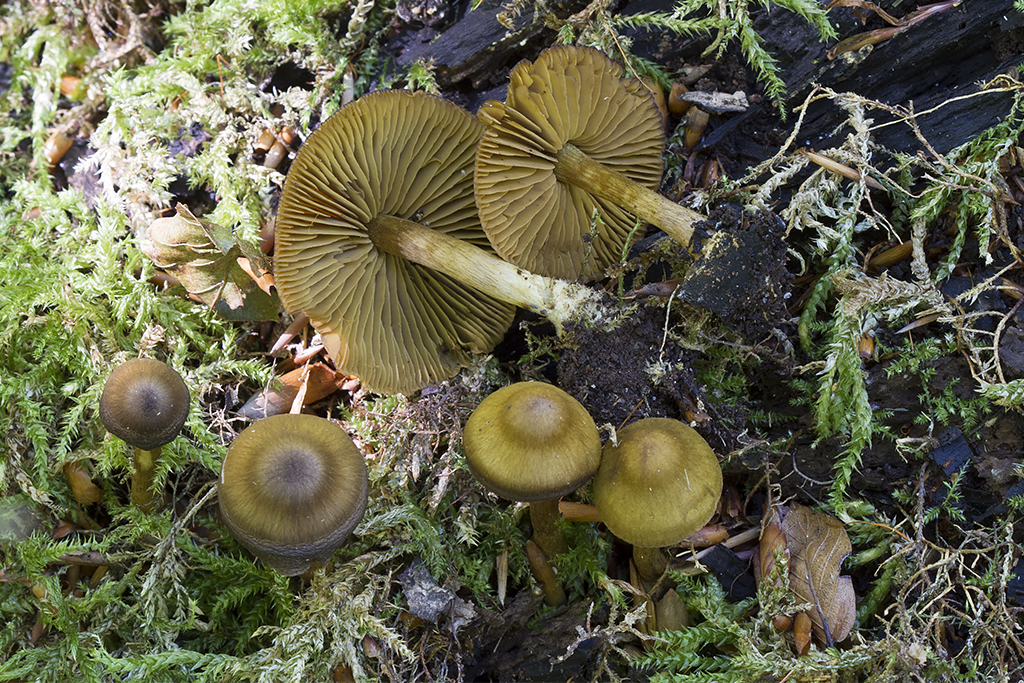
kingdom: Fungi
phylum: Basidiomycota
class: Agaricomycetes
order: Agaricales
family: Cortinariaceae
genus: Cortinarius
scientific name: Cortinarius olivaceofuscus
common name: olivenbrun slørhat
